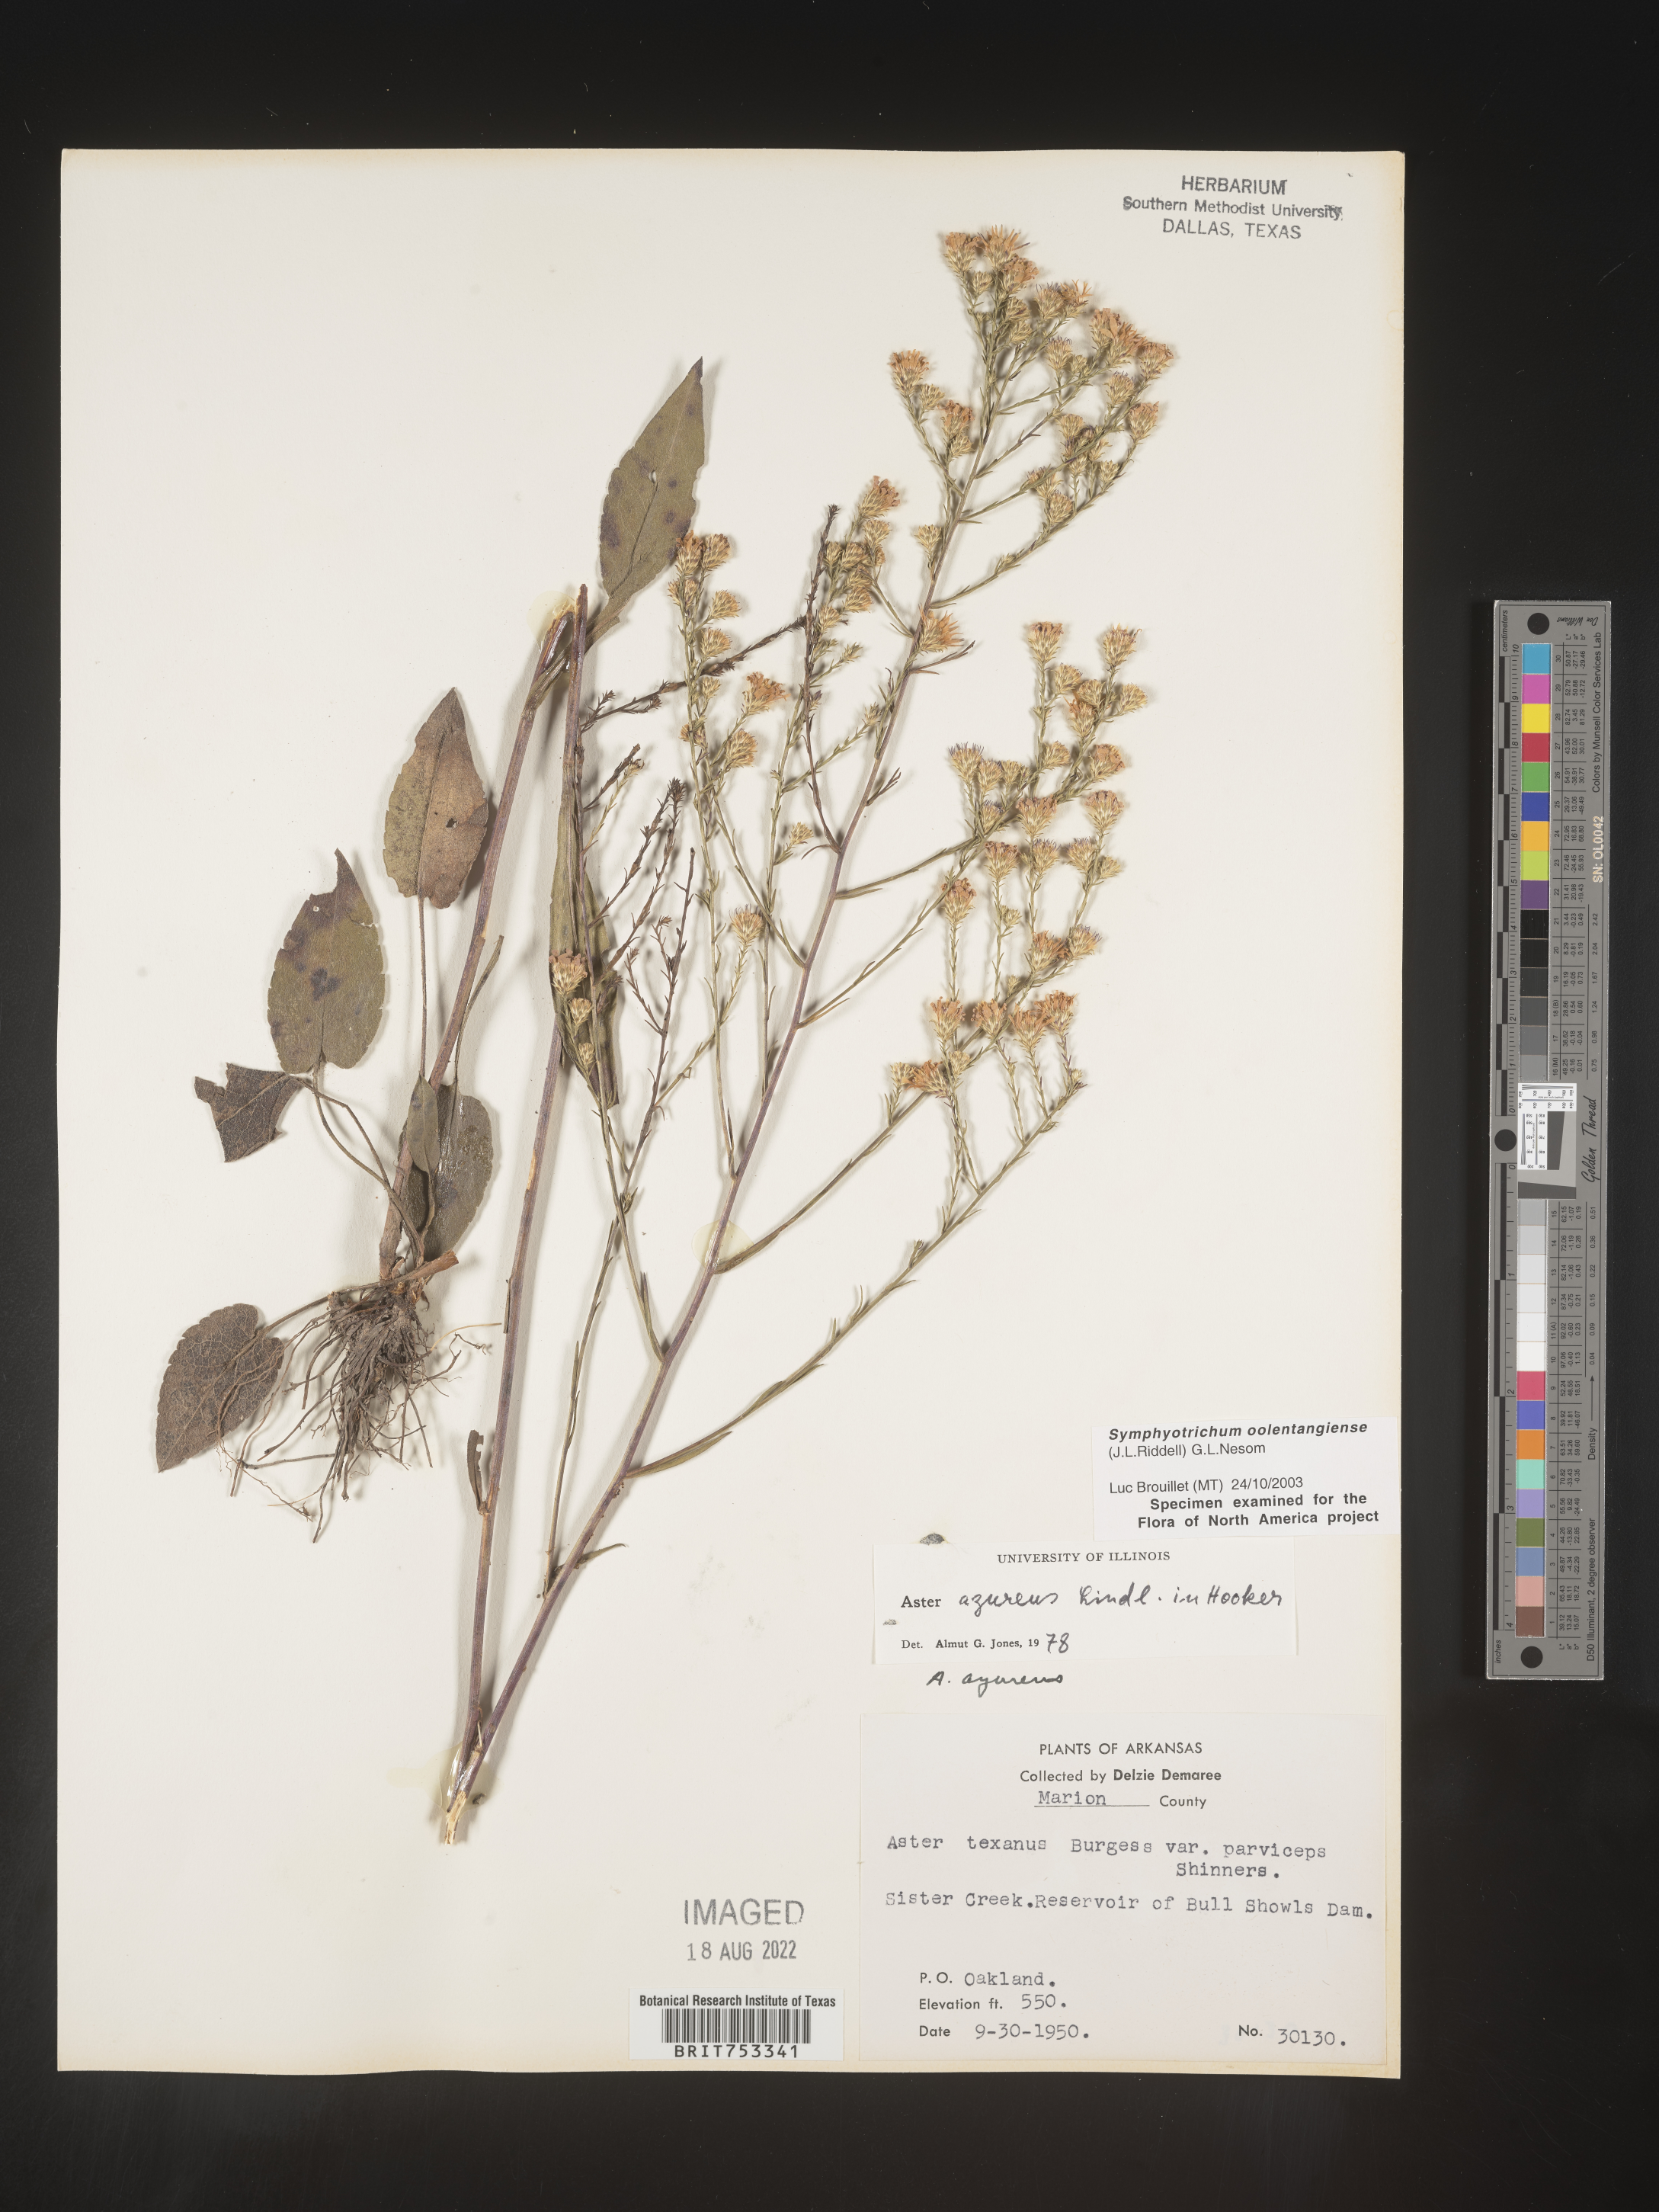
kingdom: Plantae
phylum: Tracheophyta
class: Magnoliopsida
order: Asterales
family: Asteraceae
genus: Symphyotrichum
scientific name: Symphyotrichum oolentangiense
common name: Azure aster
